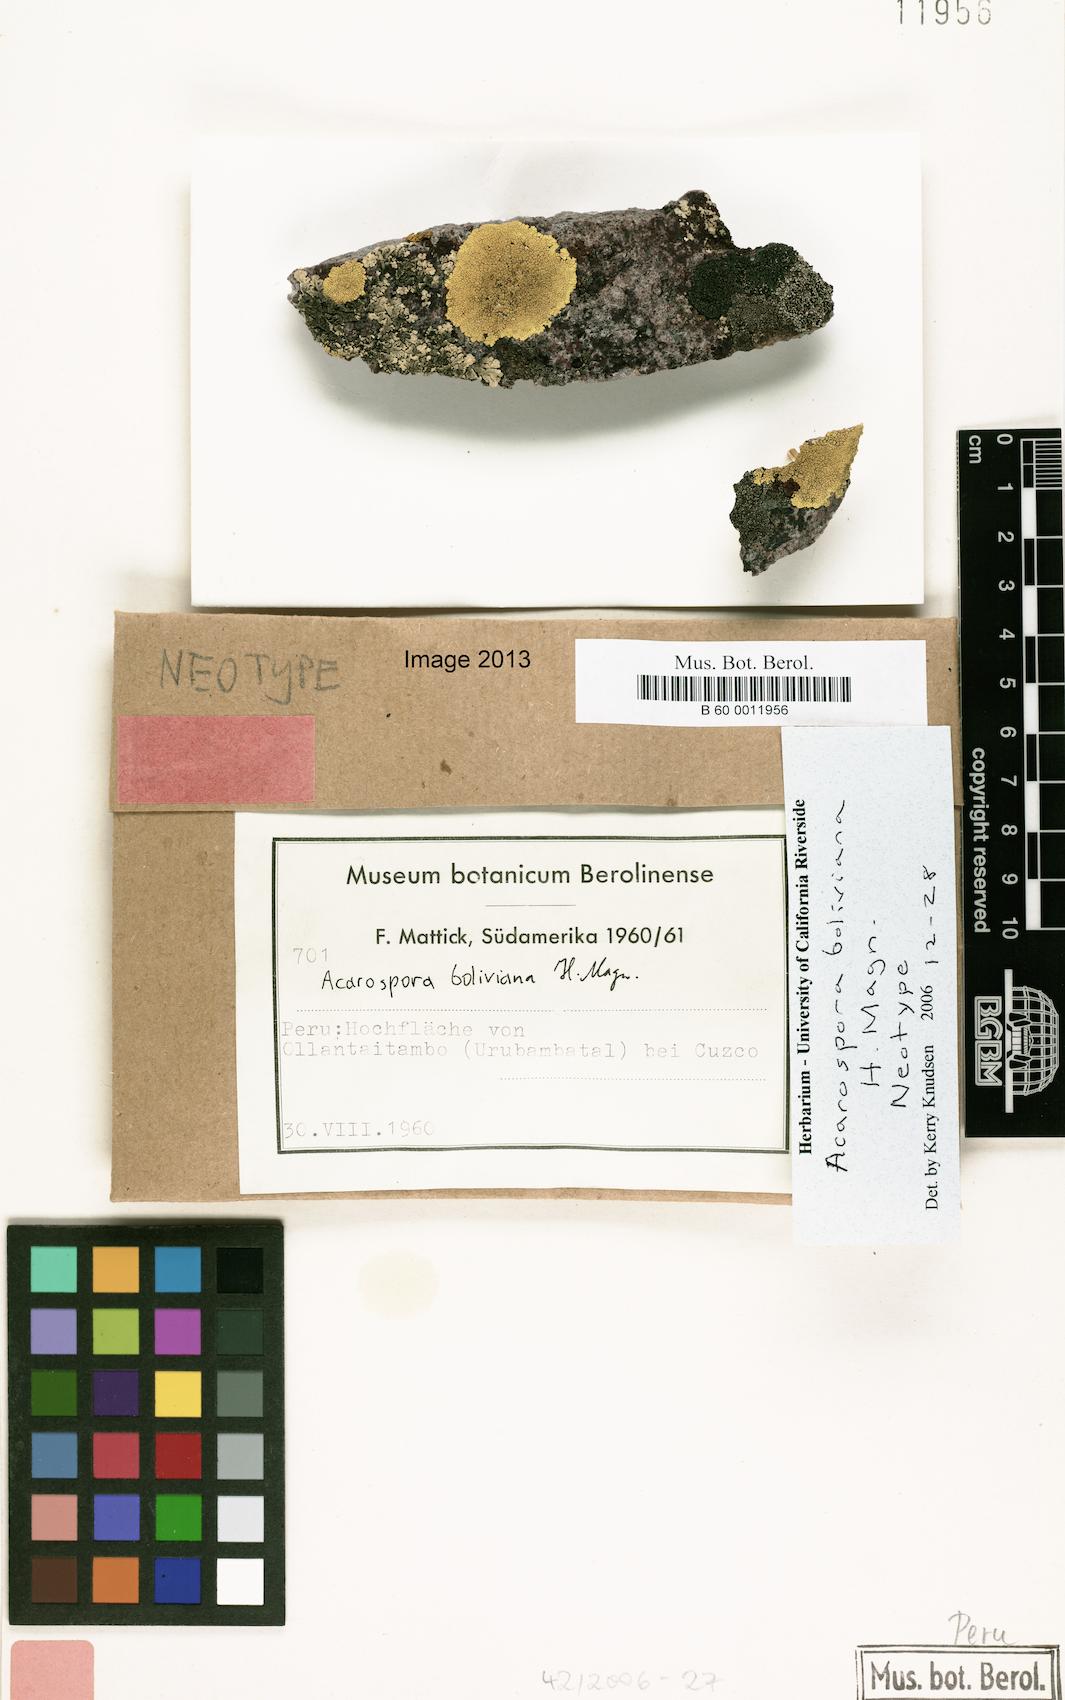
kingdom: Fungi
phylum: Ascomycota
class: Lecanoromycetes
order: Acarosporales
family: Acarosporaceae
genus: Acarospora
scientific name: Acarospora boliviana
